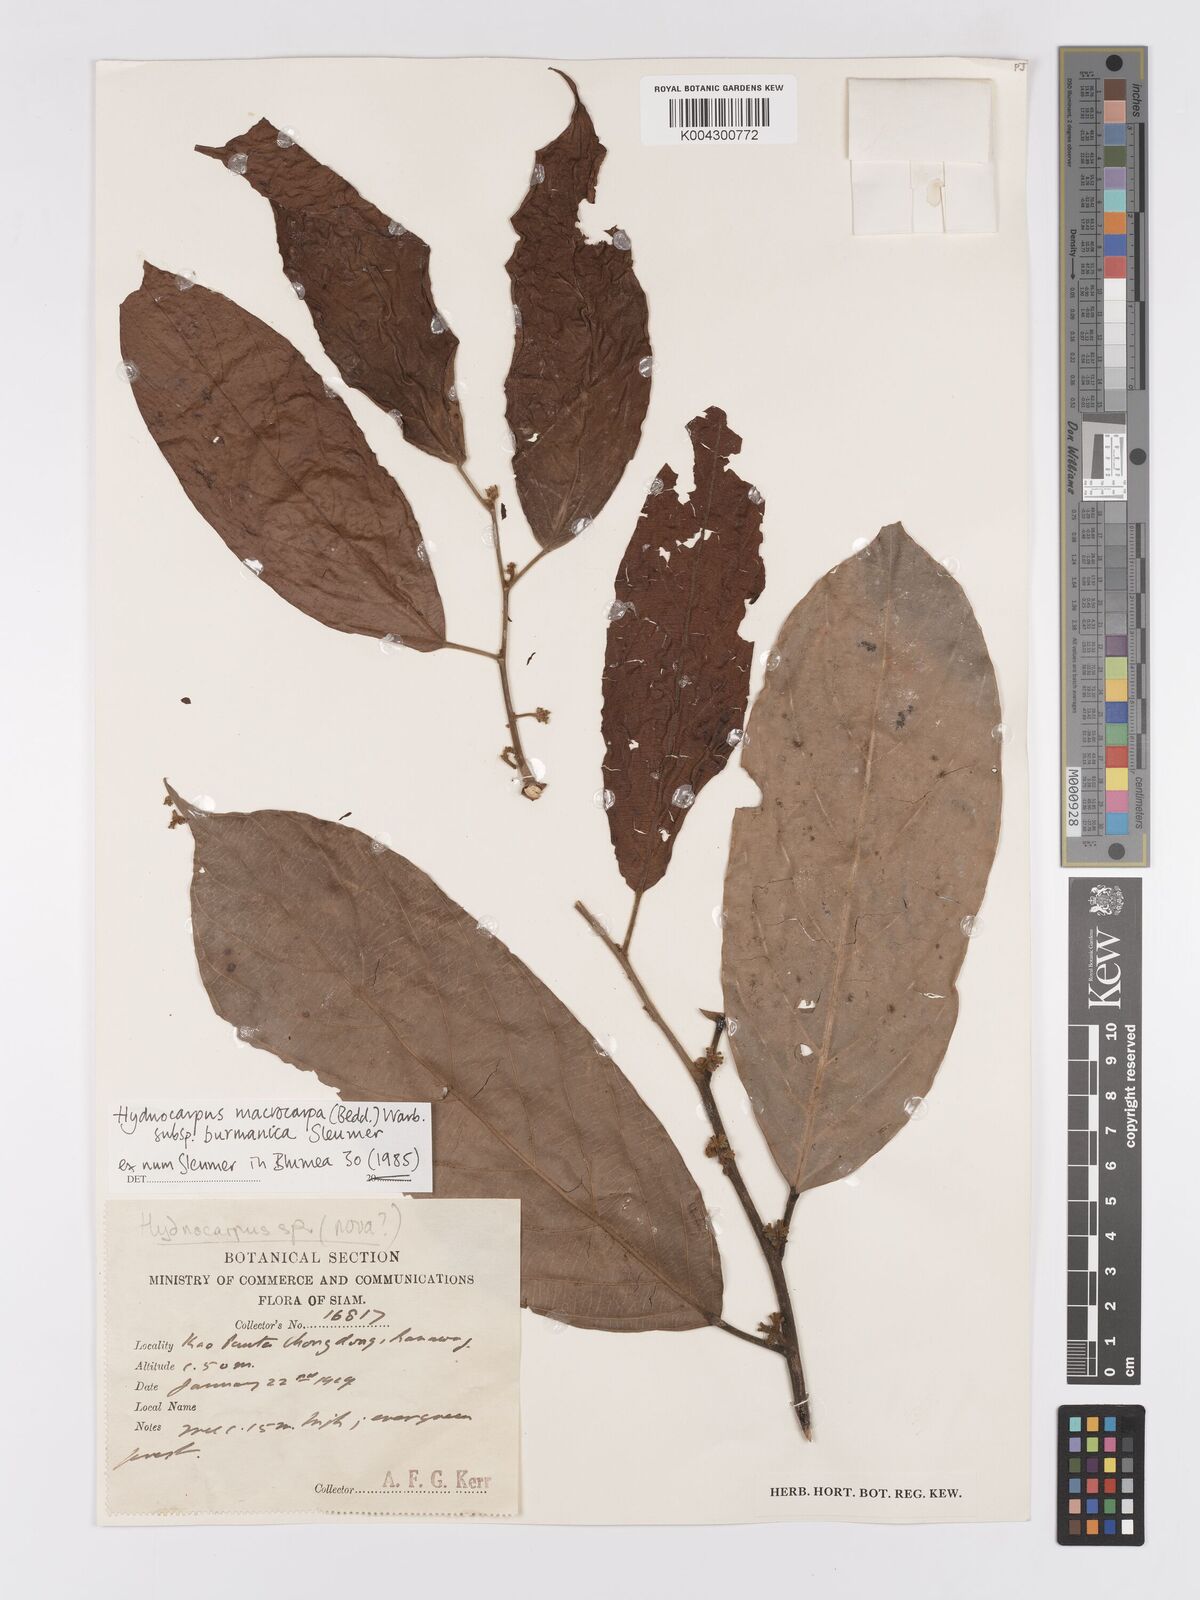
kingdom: Plantae
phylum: Tracheophyta
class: Magnoliopsida
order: Malpighiales
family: Achariaceae
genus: Hydnocarpus
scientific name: Hydnocarpus macrocarpus
